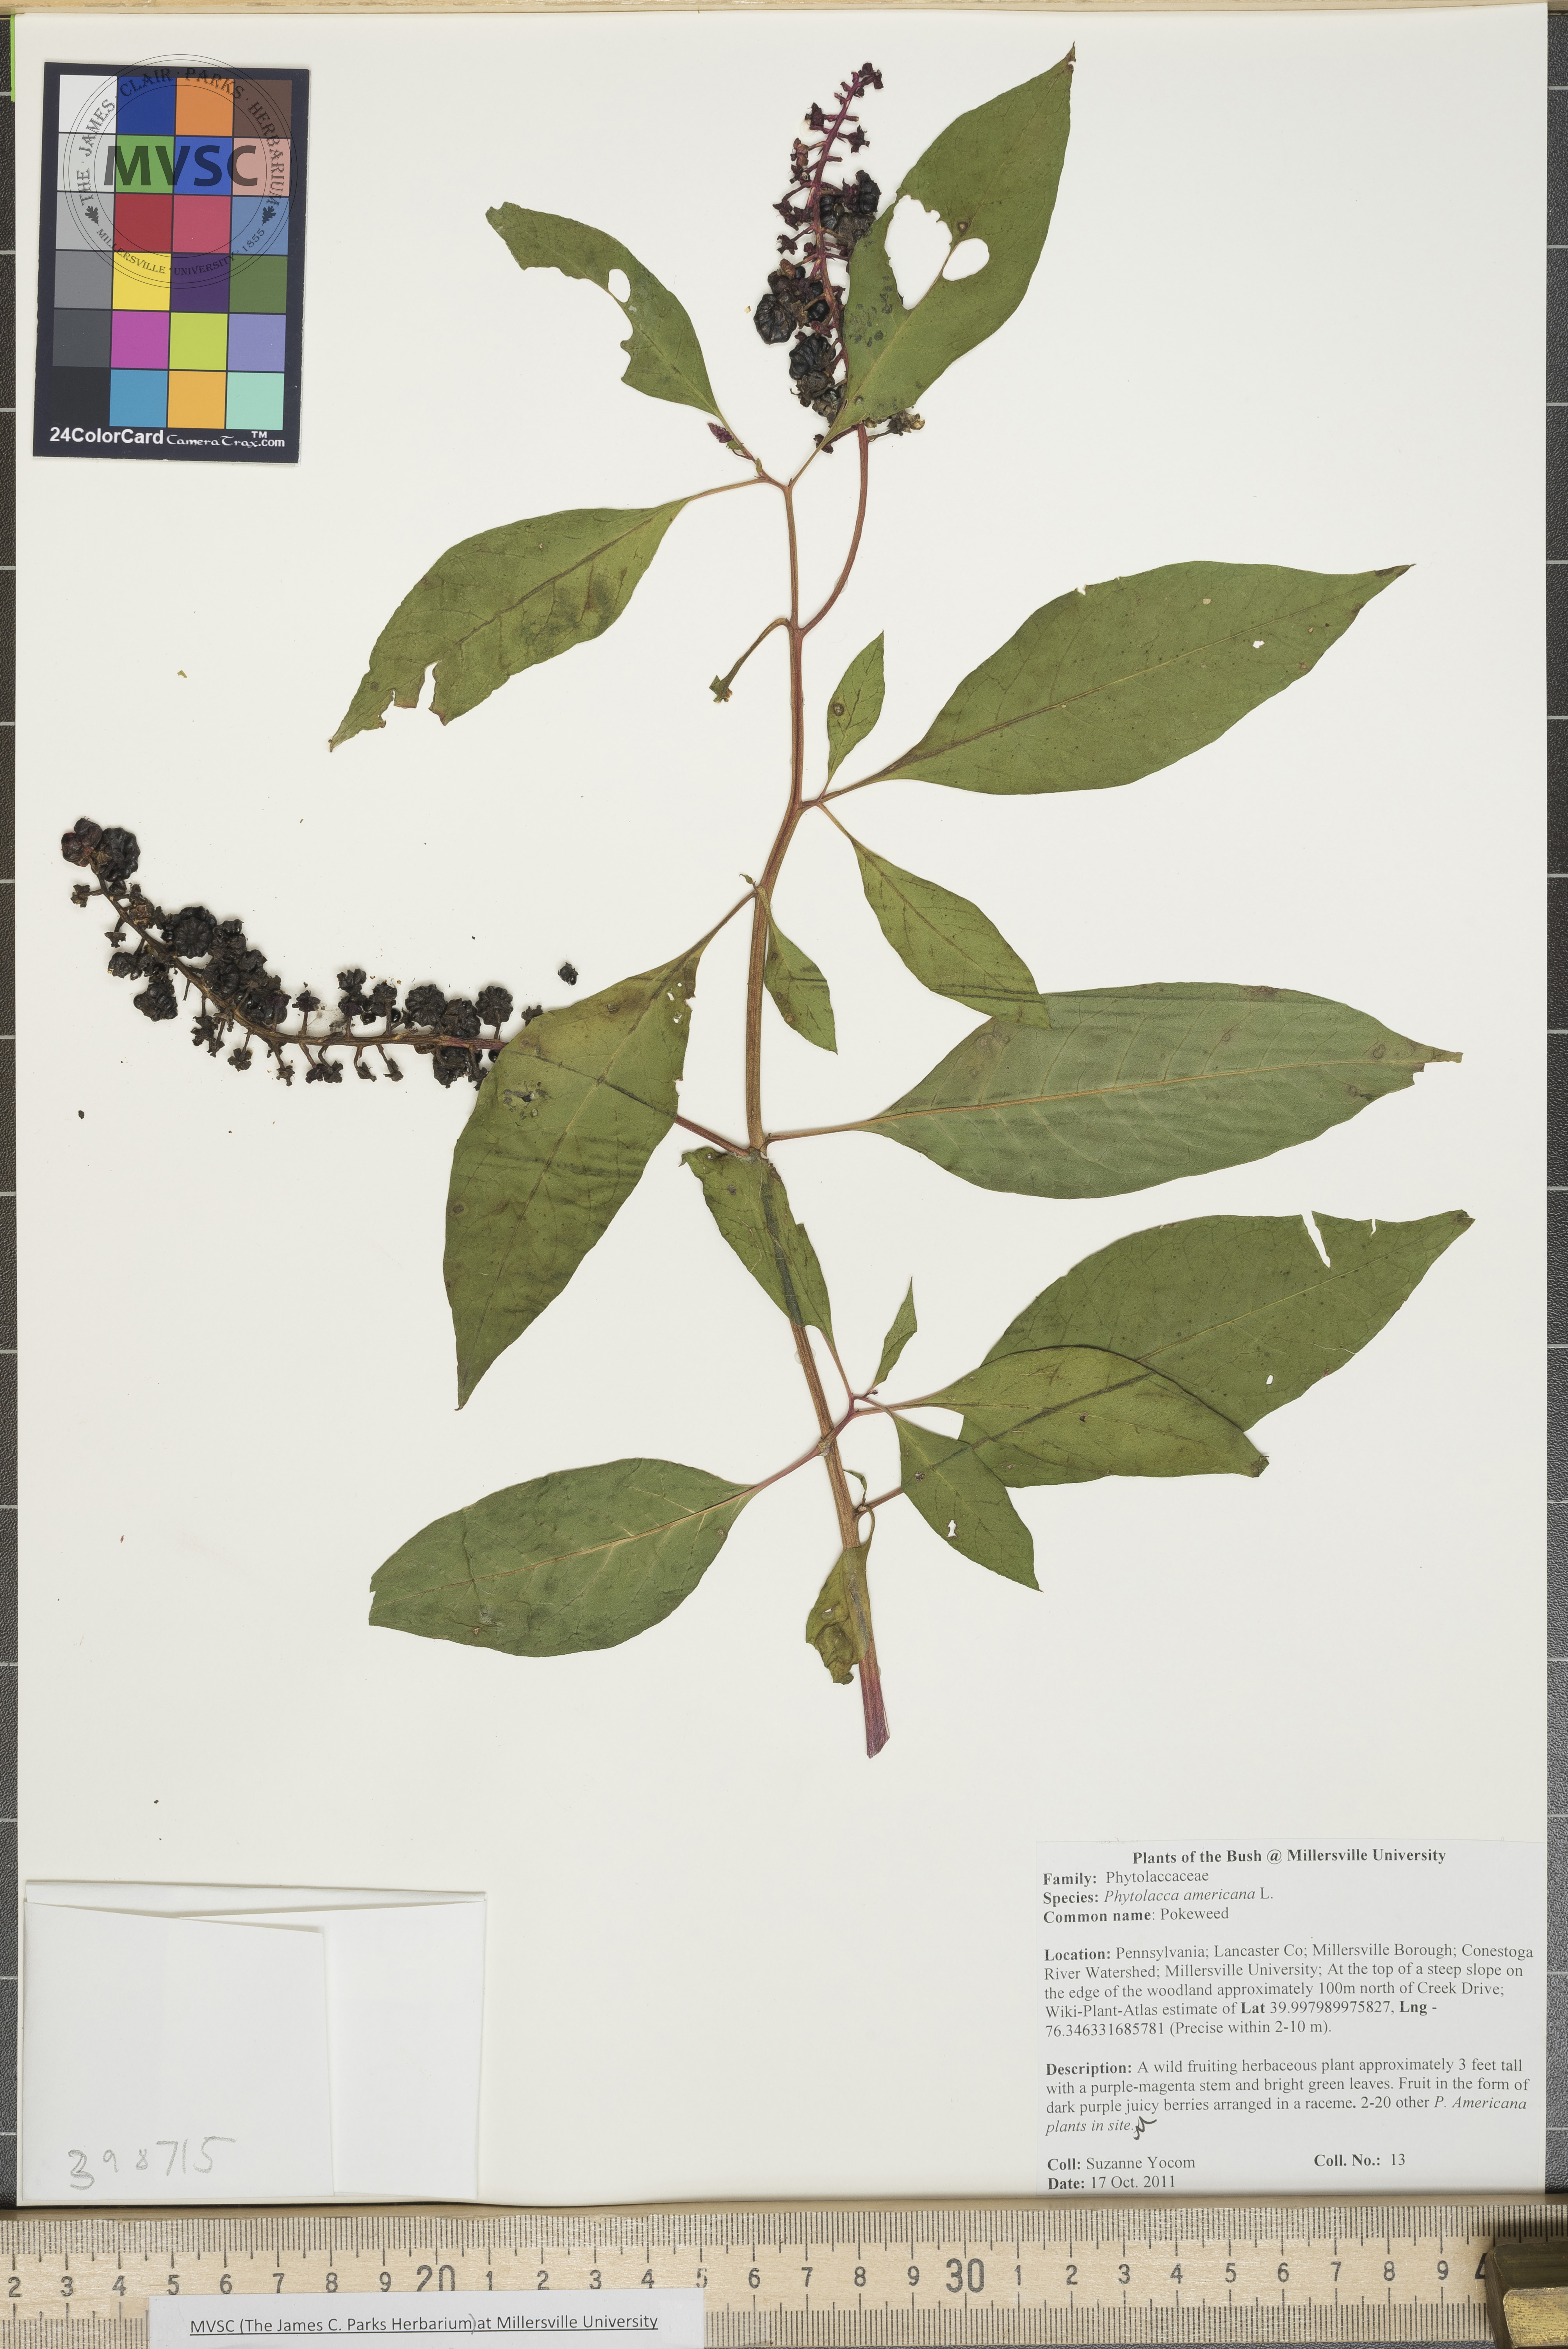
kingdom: Plantae
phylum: Tracheophyta
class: Magnoliopsida
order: Caryophyllales
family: Phytolaccaceae
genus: Phytolacca
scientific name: Phytolacca americana
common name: Pokeweed
